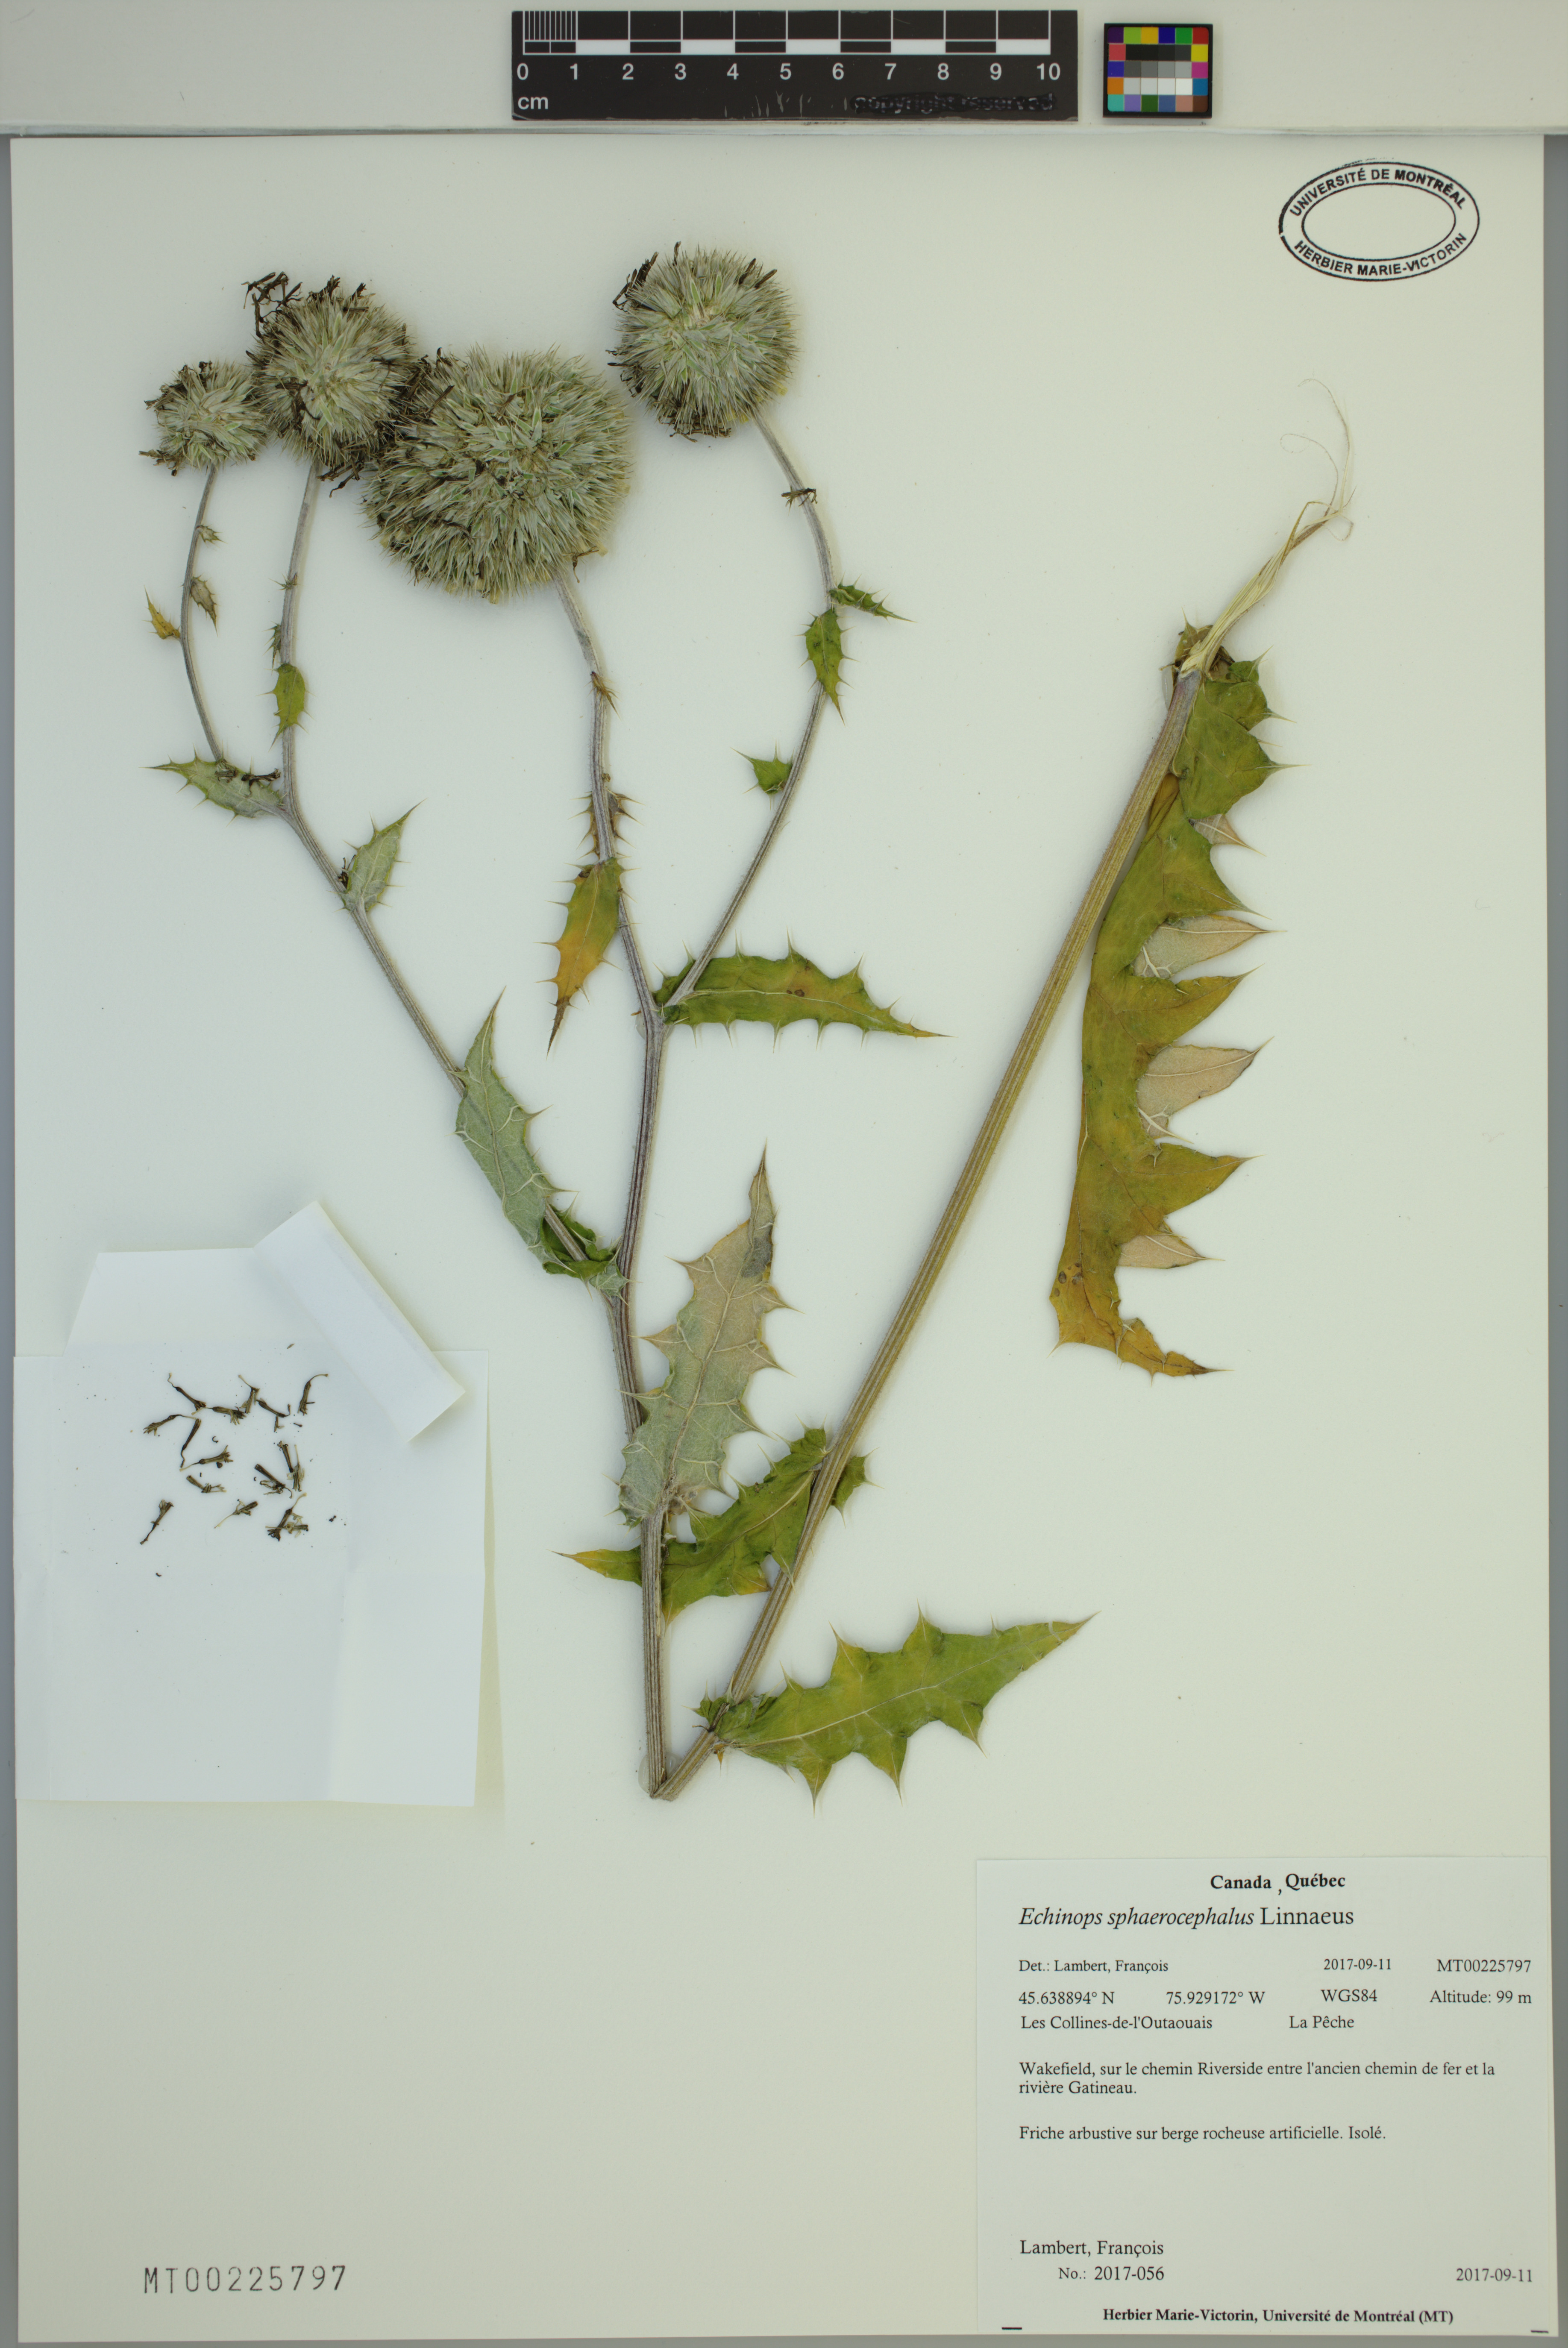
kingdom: Plantae
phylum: Tracheophyta
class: Magnoliopsida
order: Asterales
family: Asteraceae
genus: Echinops
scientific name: Echinops sphaerocephalus
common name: Glandular globe-thistle
